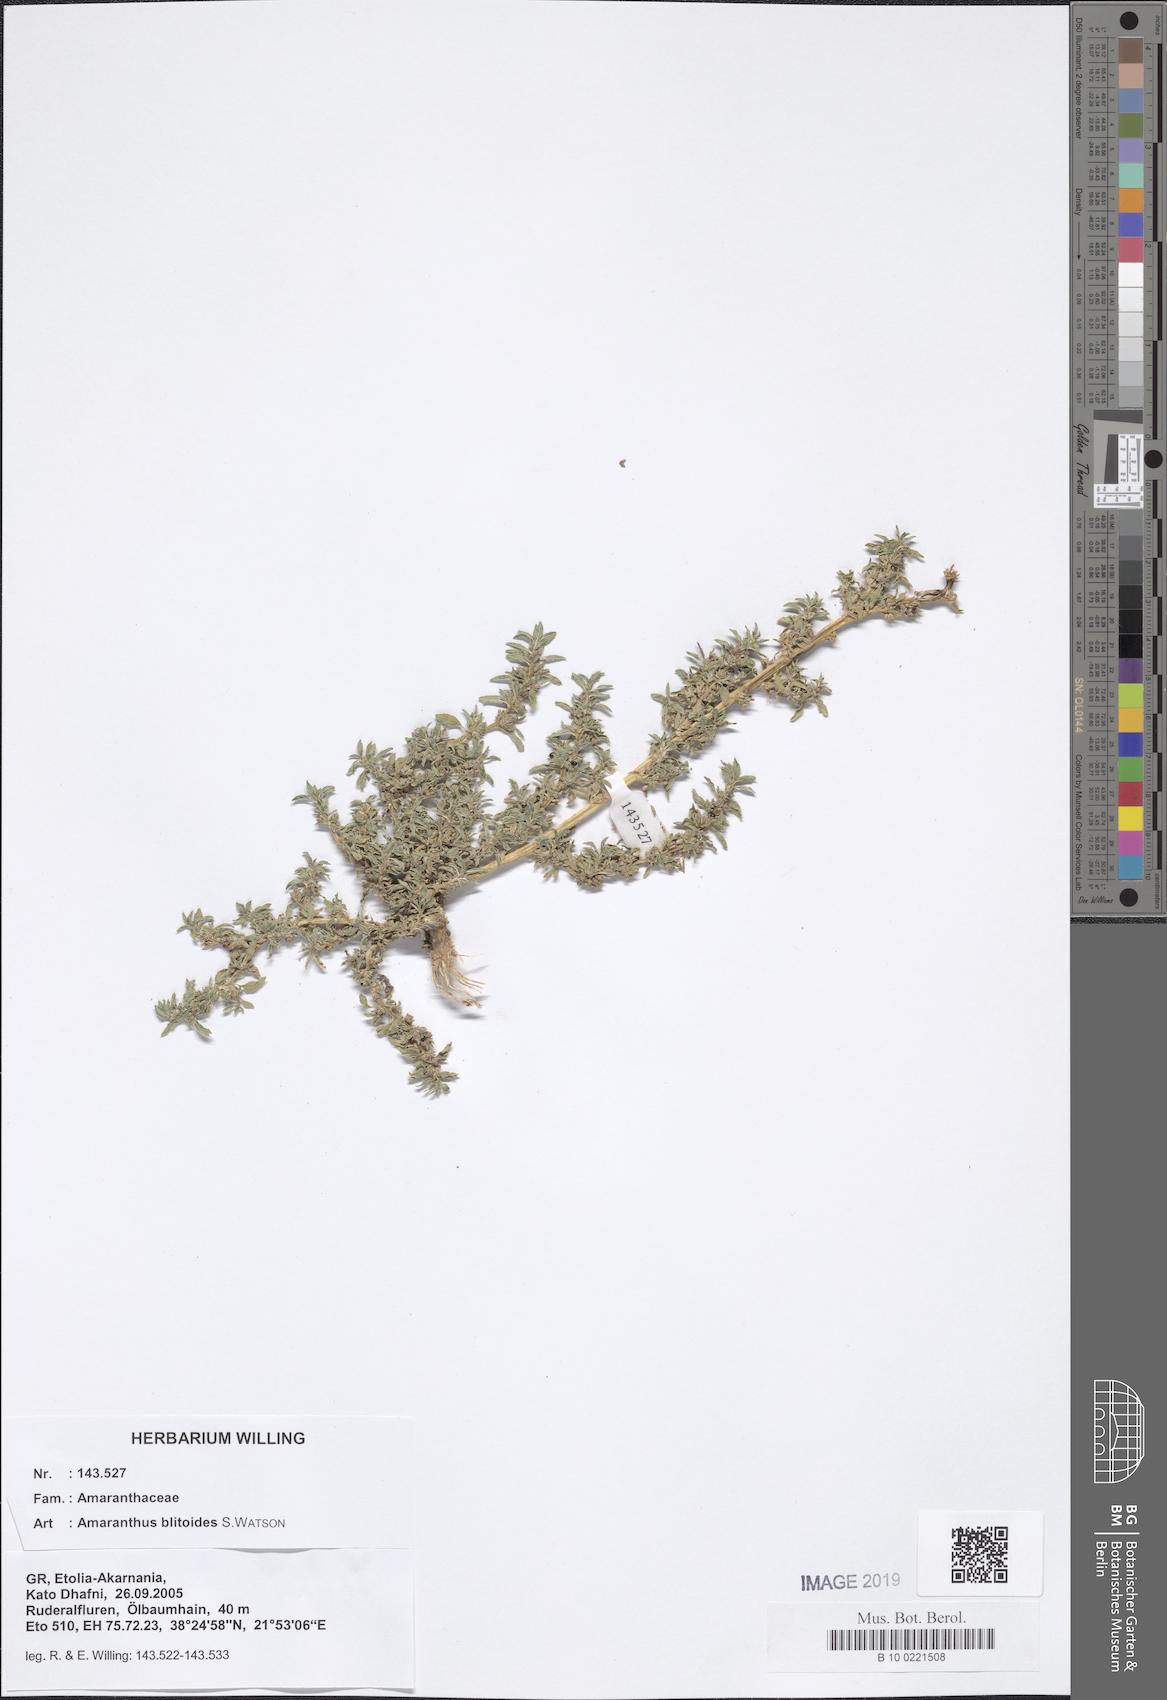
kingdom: Plantae
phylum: Tracheophyta
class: Magnoliopsida
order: Caryophyllales
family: Amaranthaceae
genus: Amaranthus
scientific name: Amaranthus blitoides
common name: Prostrate pigweed
